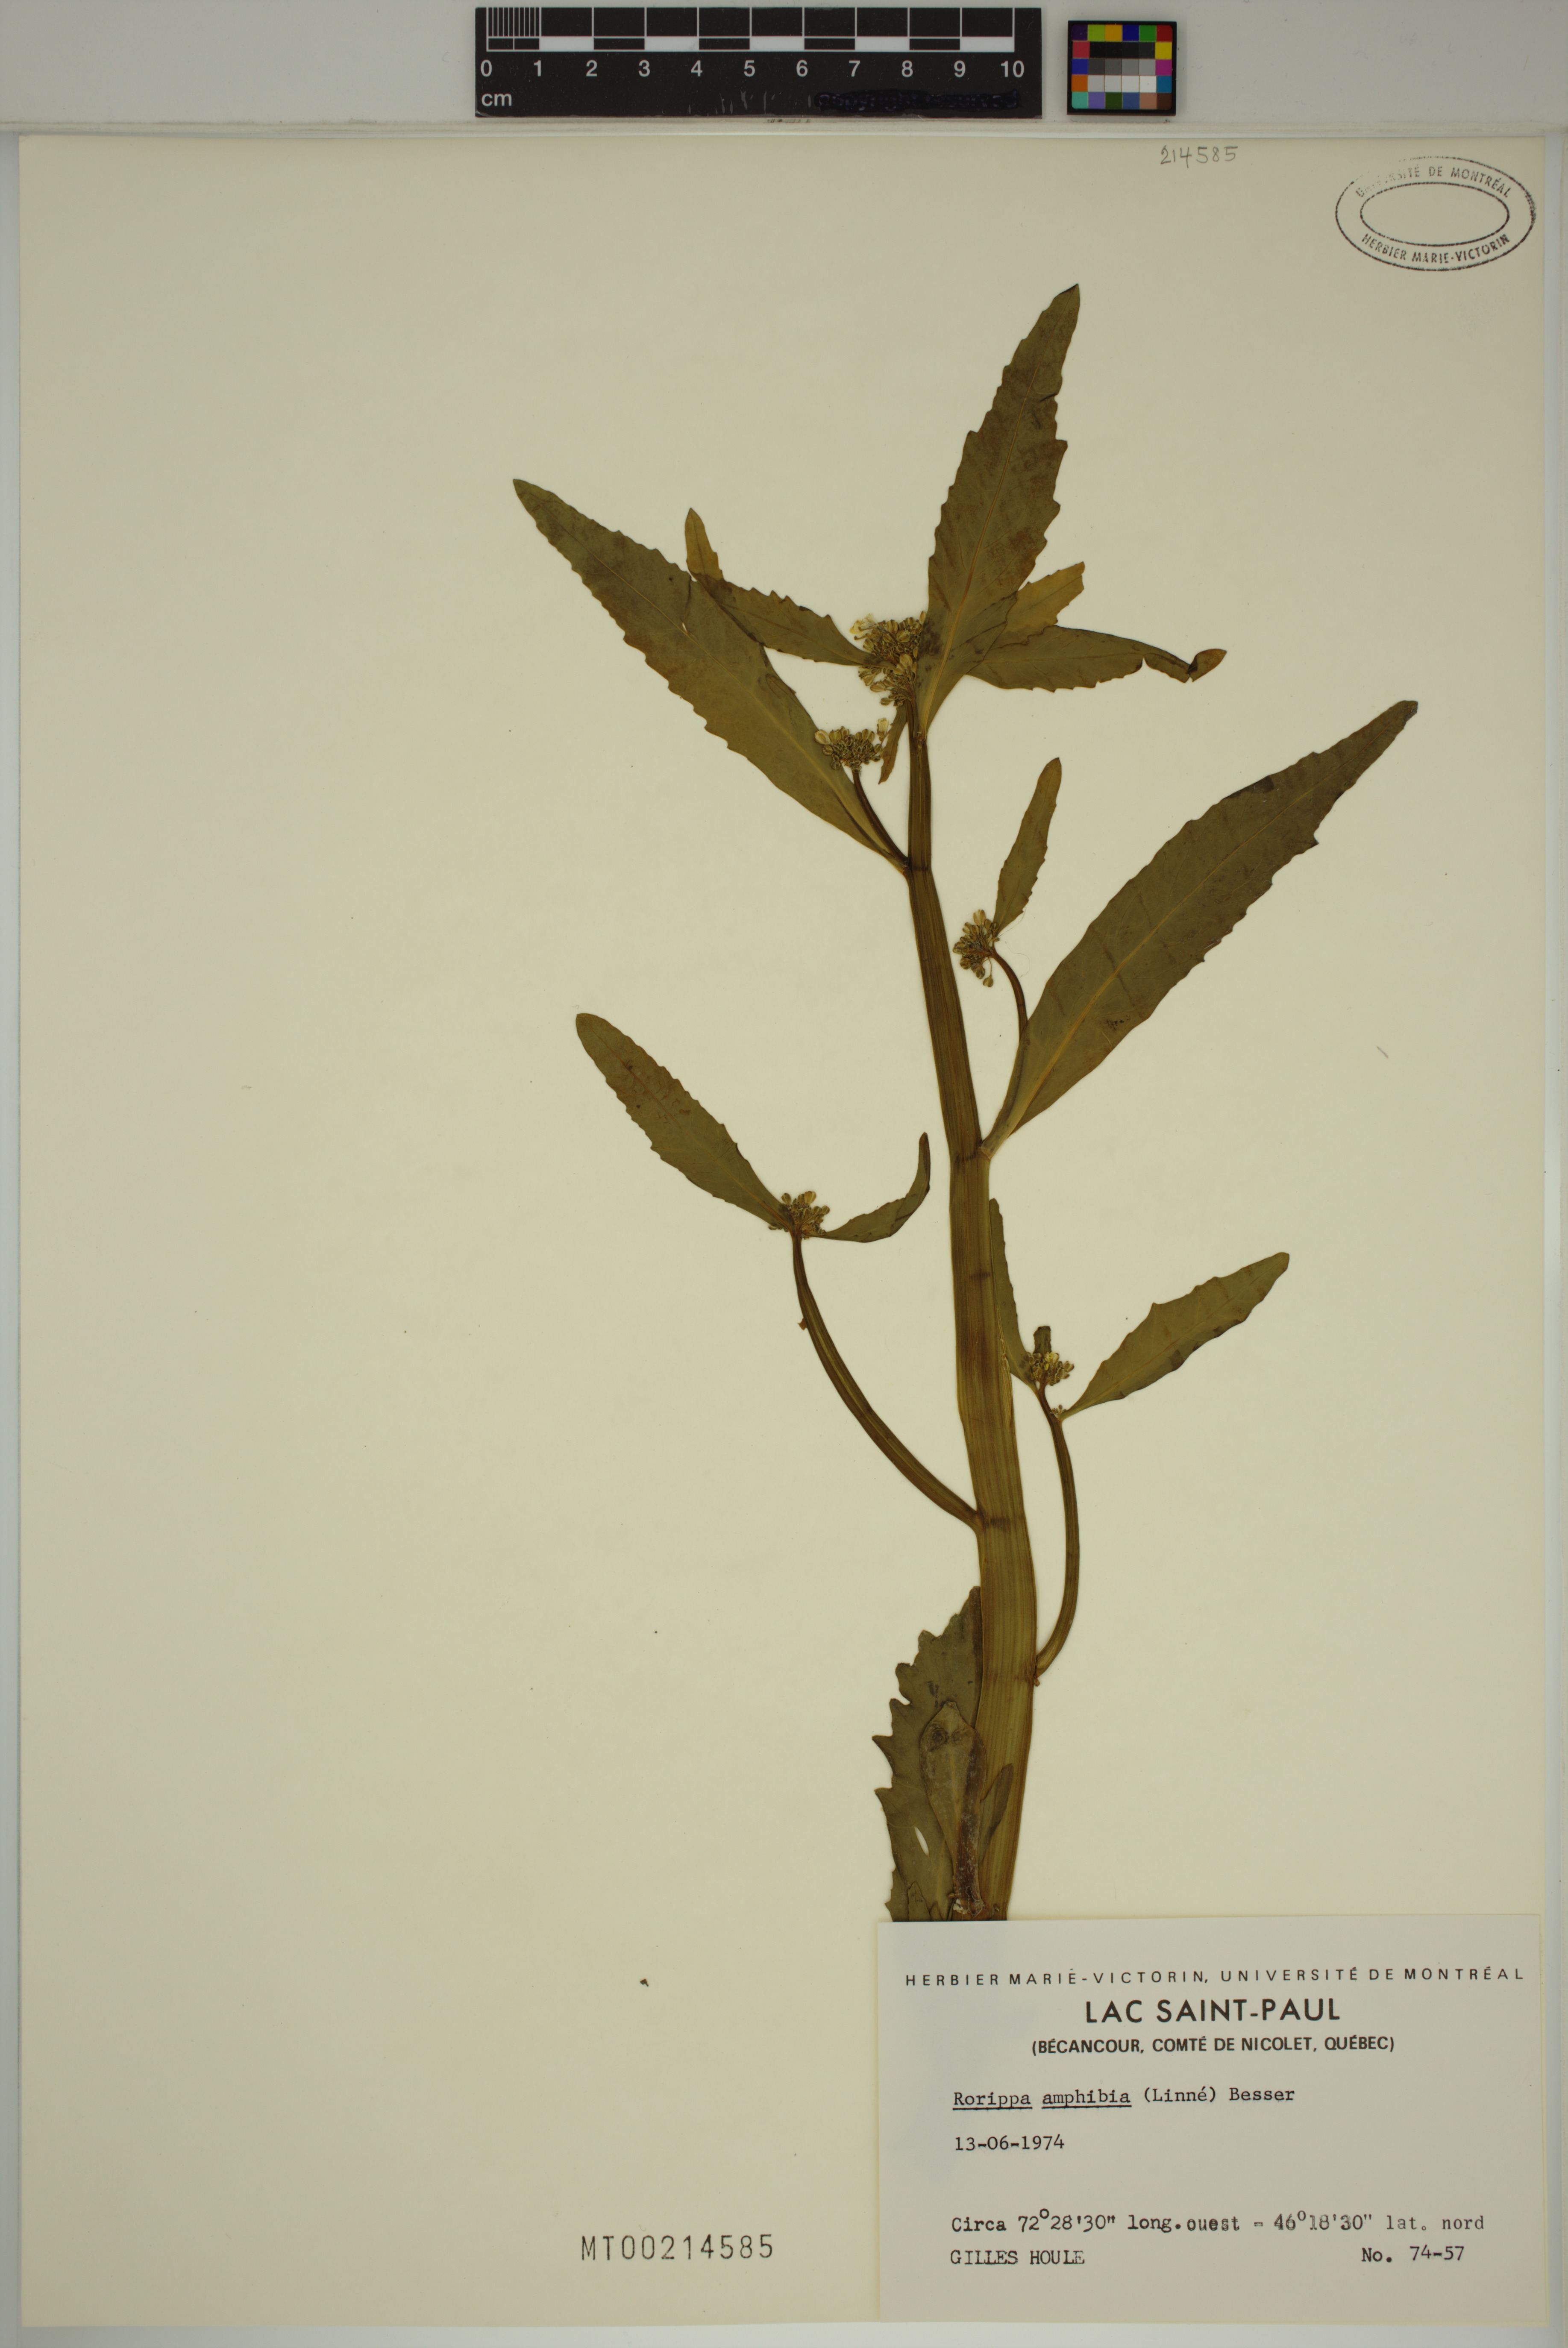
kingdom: Plantae
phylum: Tracheophyta
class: Magnoliopsida
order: Brassicales
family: Brassicaceae
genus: Rorippa
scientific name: Rorippa amphibia
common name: Great yellow-cress
